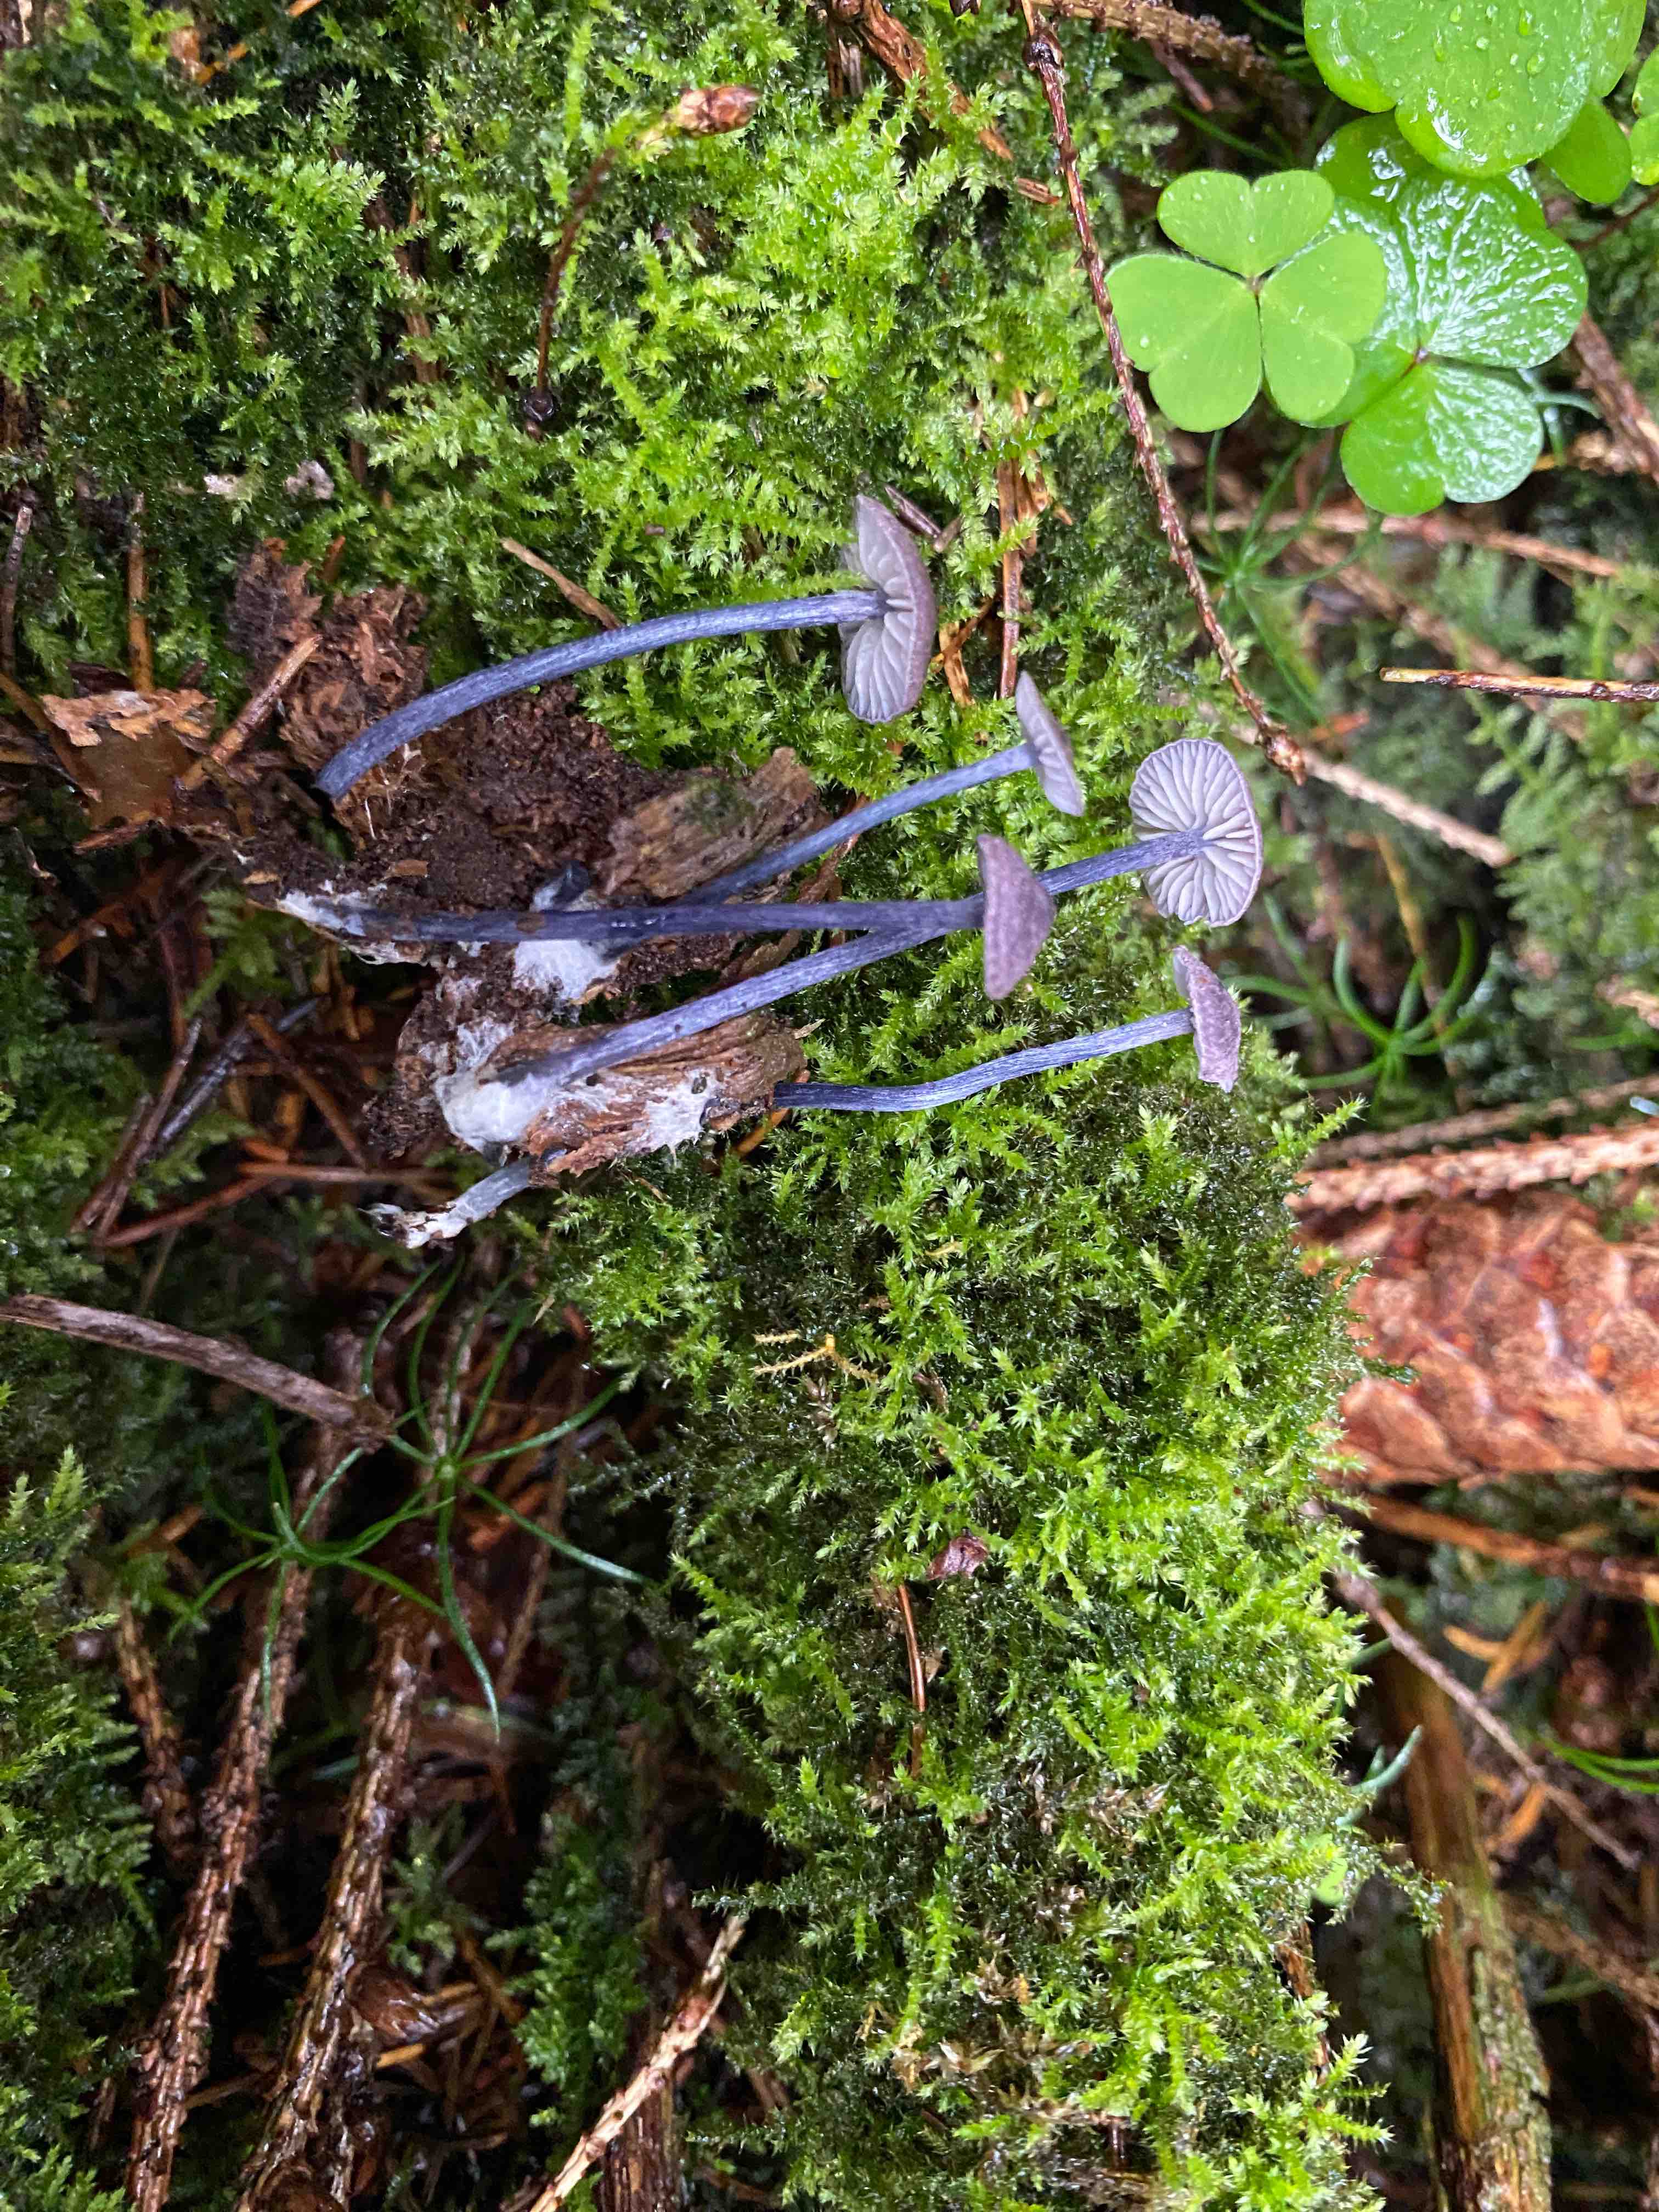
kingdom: Fungi
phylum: Basidiomycota
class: Agaricomycetes
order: Agaricales
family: Entolomataceae
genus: Entoloma
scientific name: Entoloma syringicolor
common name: syren-rødblad
